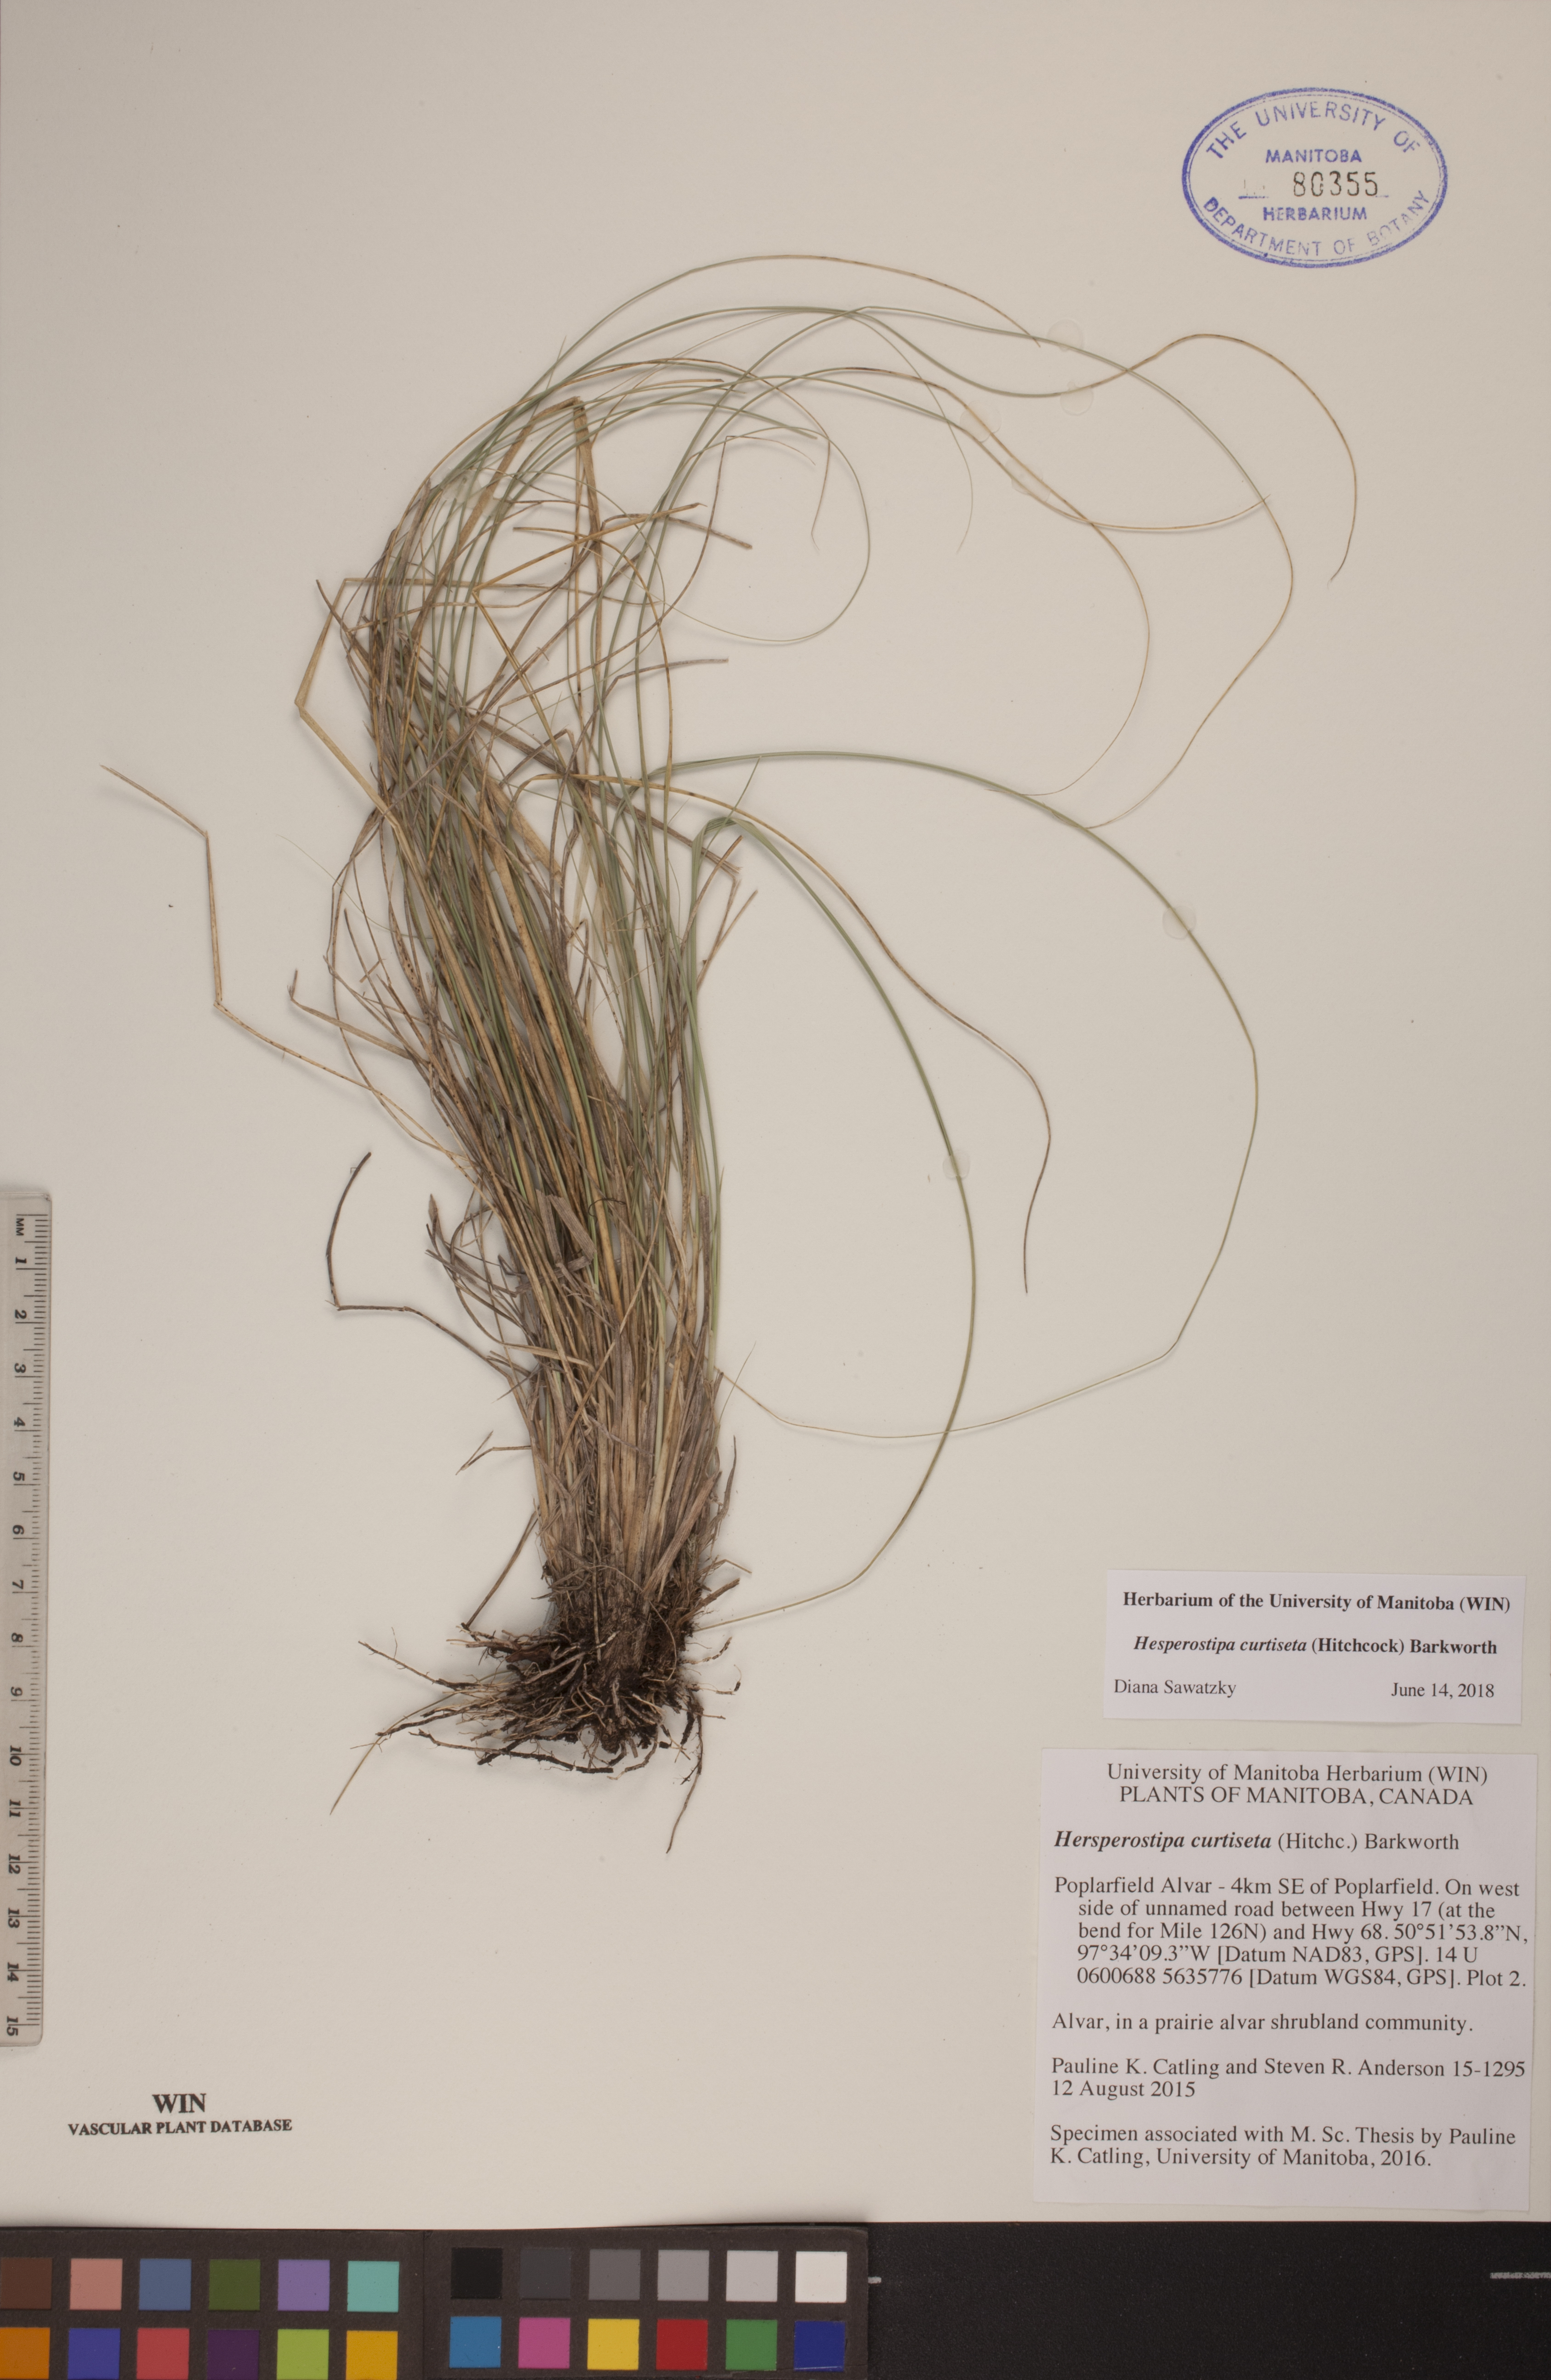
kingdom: Plantae
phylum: Tracheophyta
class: Liliopsida
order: Poales
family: Poaceae
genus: Hesperostipa
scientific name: Hesperostipa curtiseta
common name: Canada needle-and-thread grass
